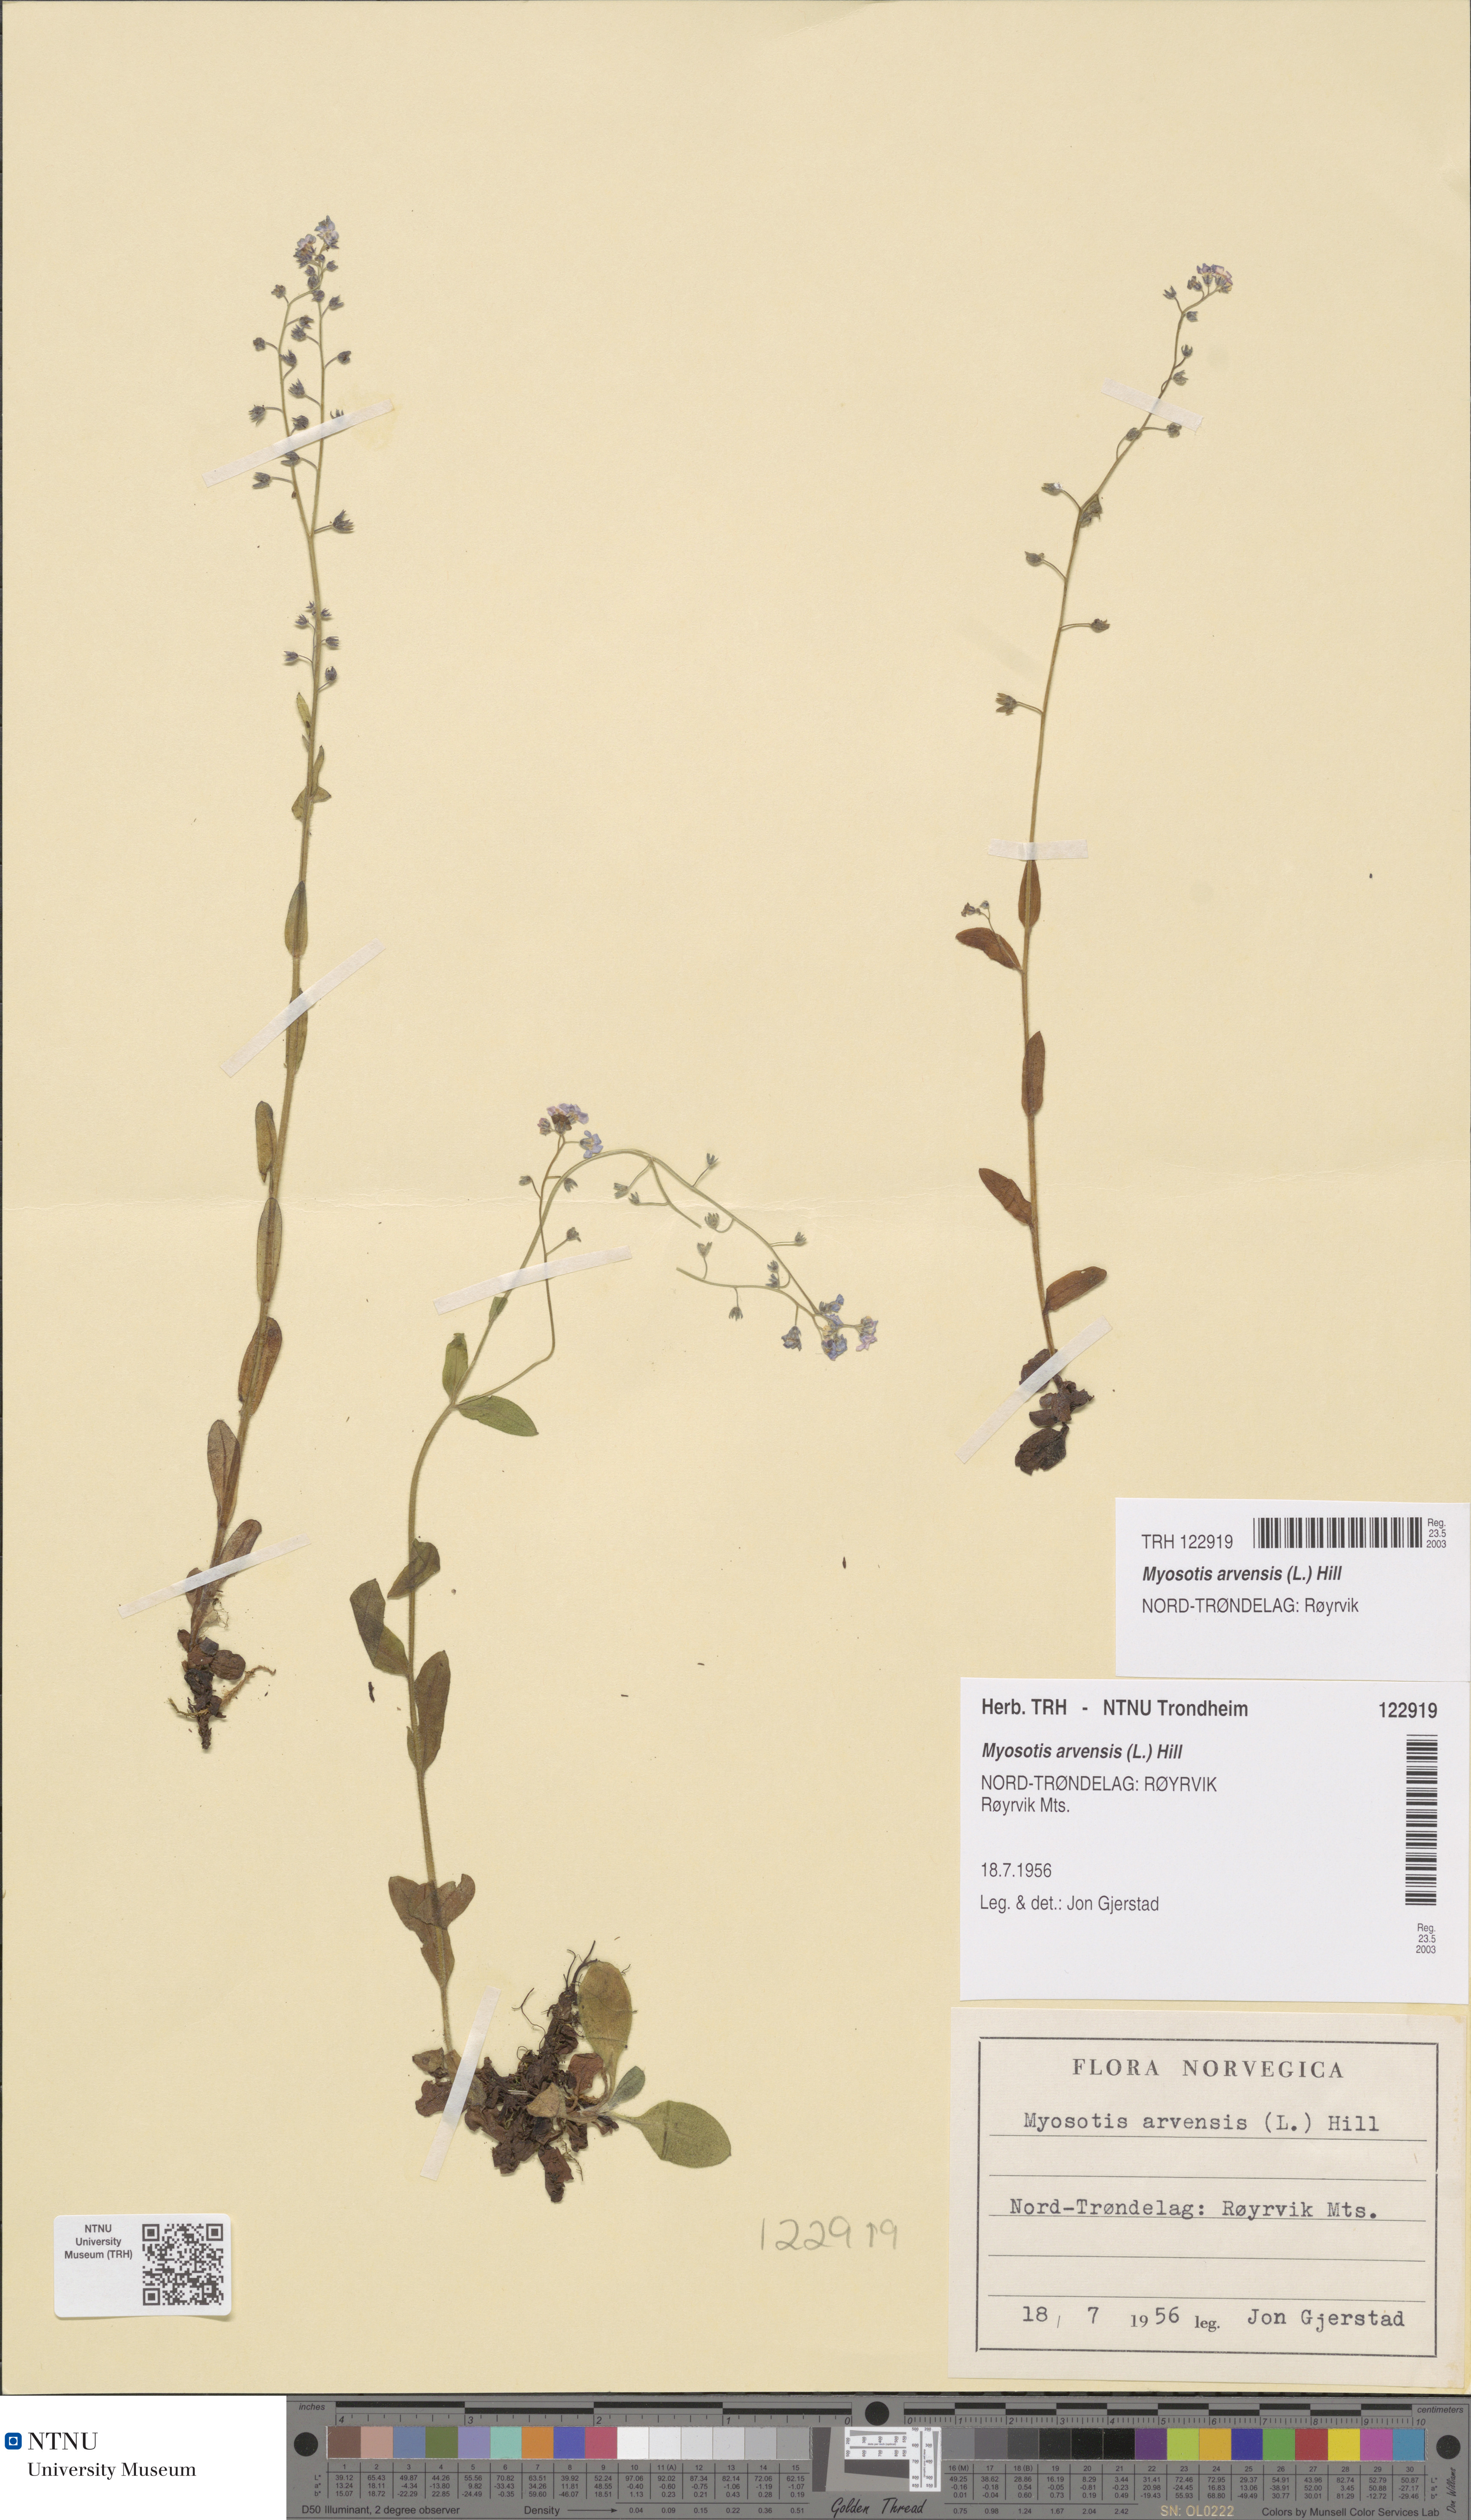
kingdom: Plantae
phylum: Tracheophyta
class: Magnoliopsida
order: Boraginales
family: Boraginaceae
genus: Myosotis
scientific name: Myosotis arvensis
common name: Field forget-me-not
